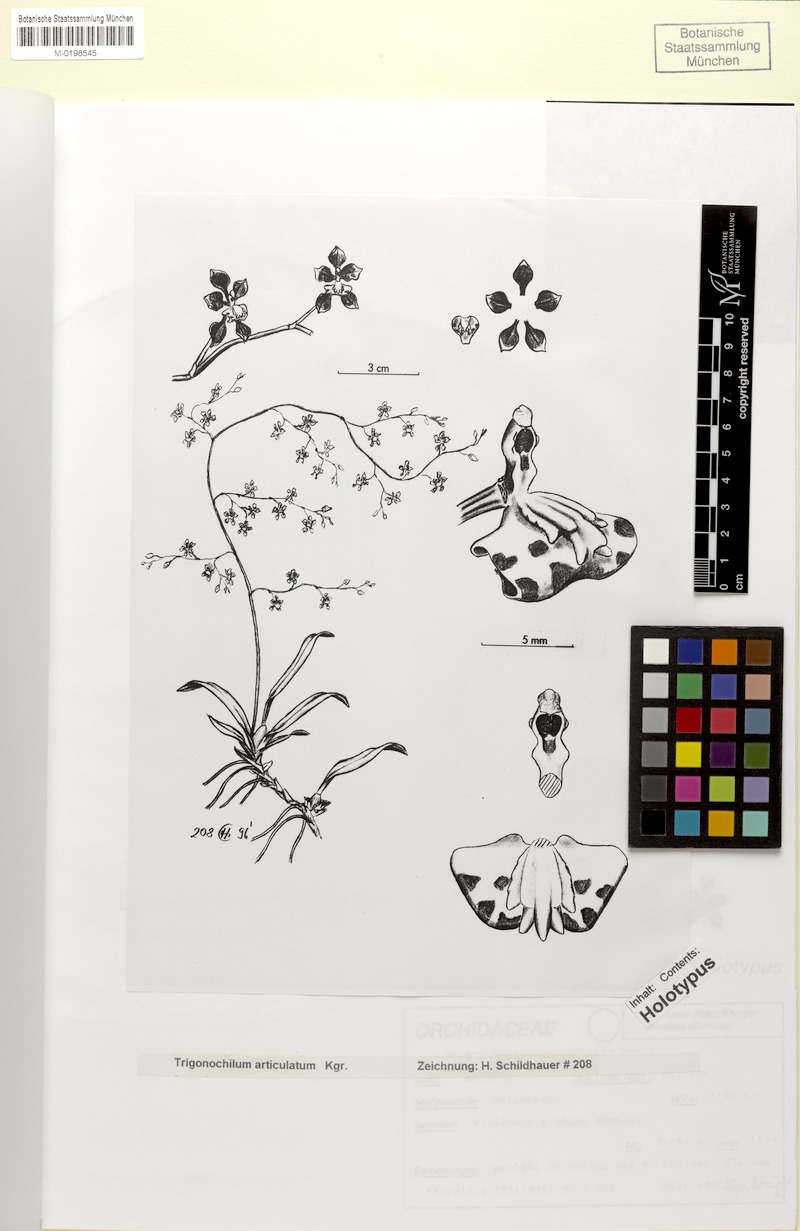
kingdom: Plantae
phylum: Tracheophyta
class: Liliopsida
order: Asparagales
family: Orchidaceae
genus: Cyrtochilum
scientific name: Cyrtochilum articulatum
